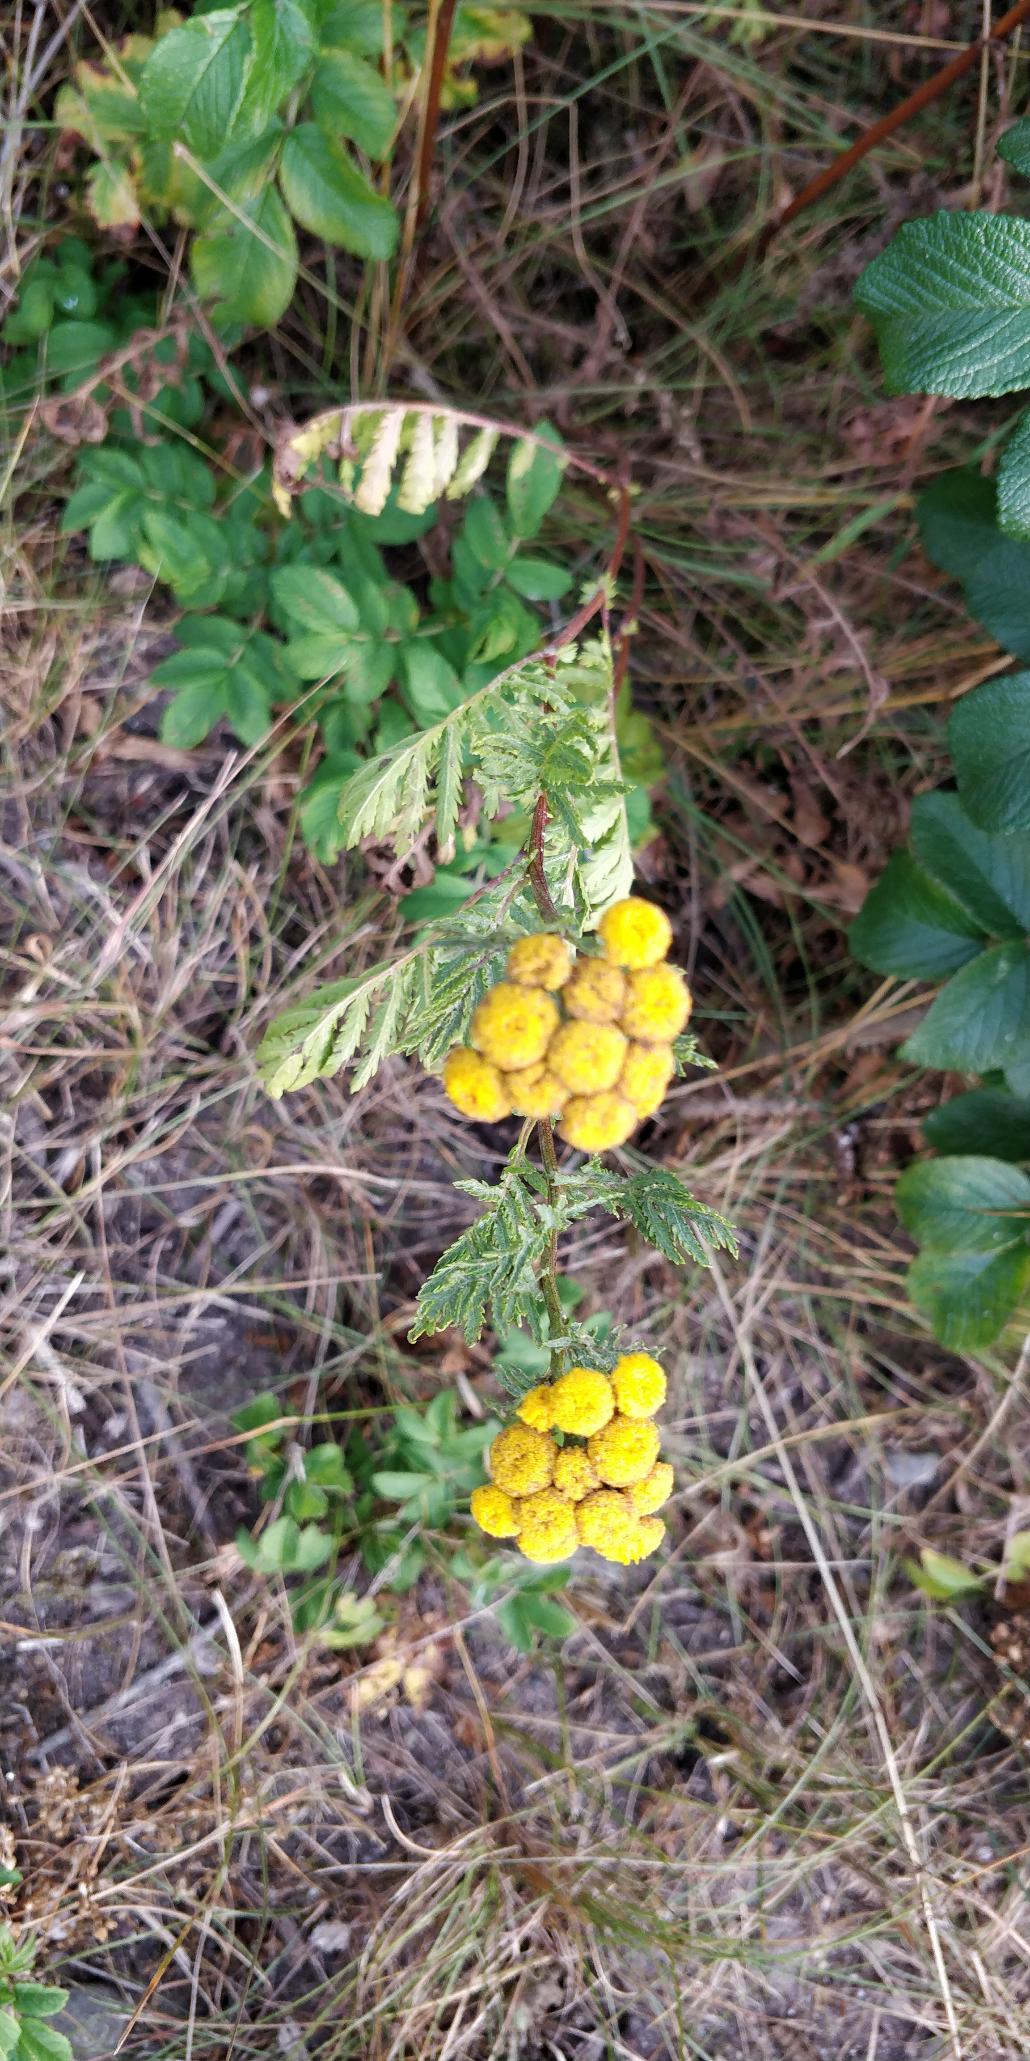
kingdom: Plantae
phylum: Tracheophyta
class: Magnoliopsida
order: Asterales
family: Asteraceae
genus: Tanacetum
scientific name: Tanacetum vulgare
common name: Rejnfan
